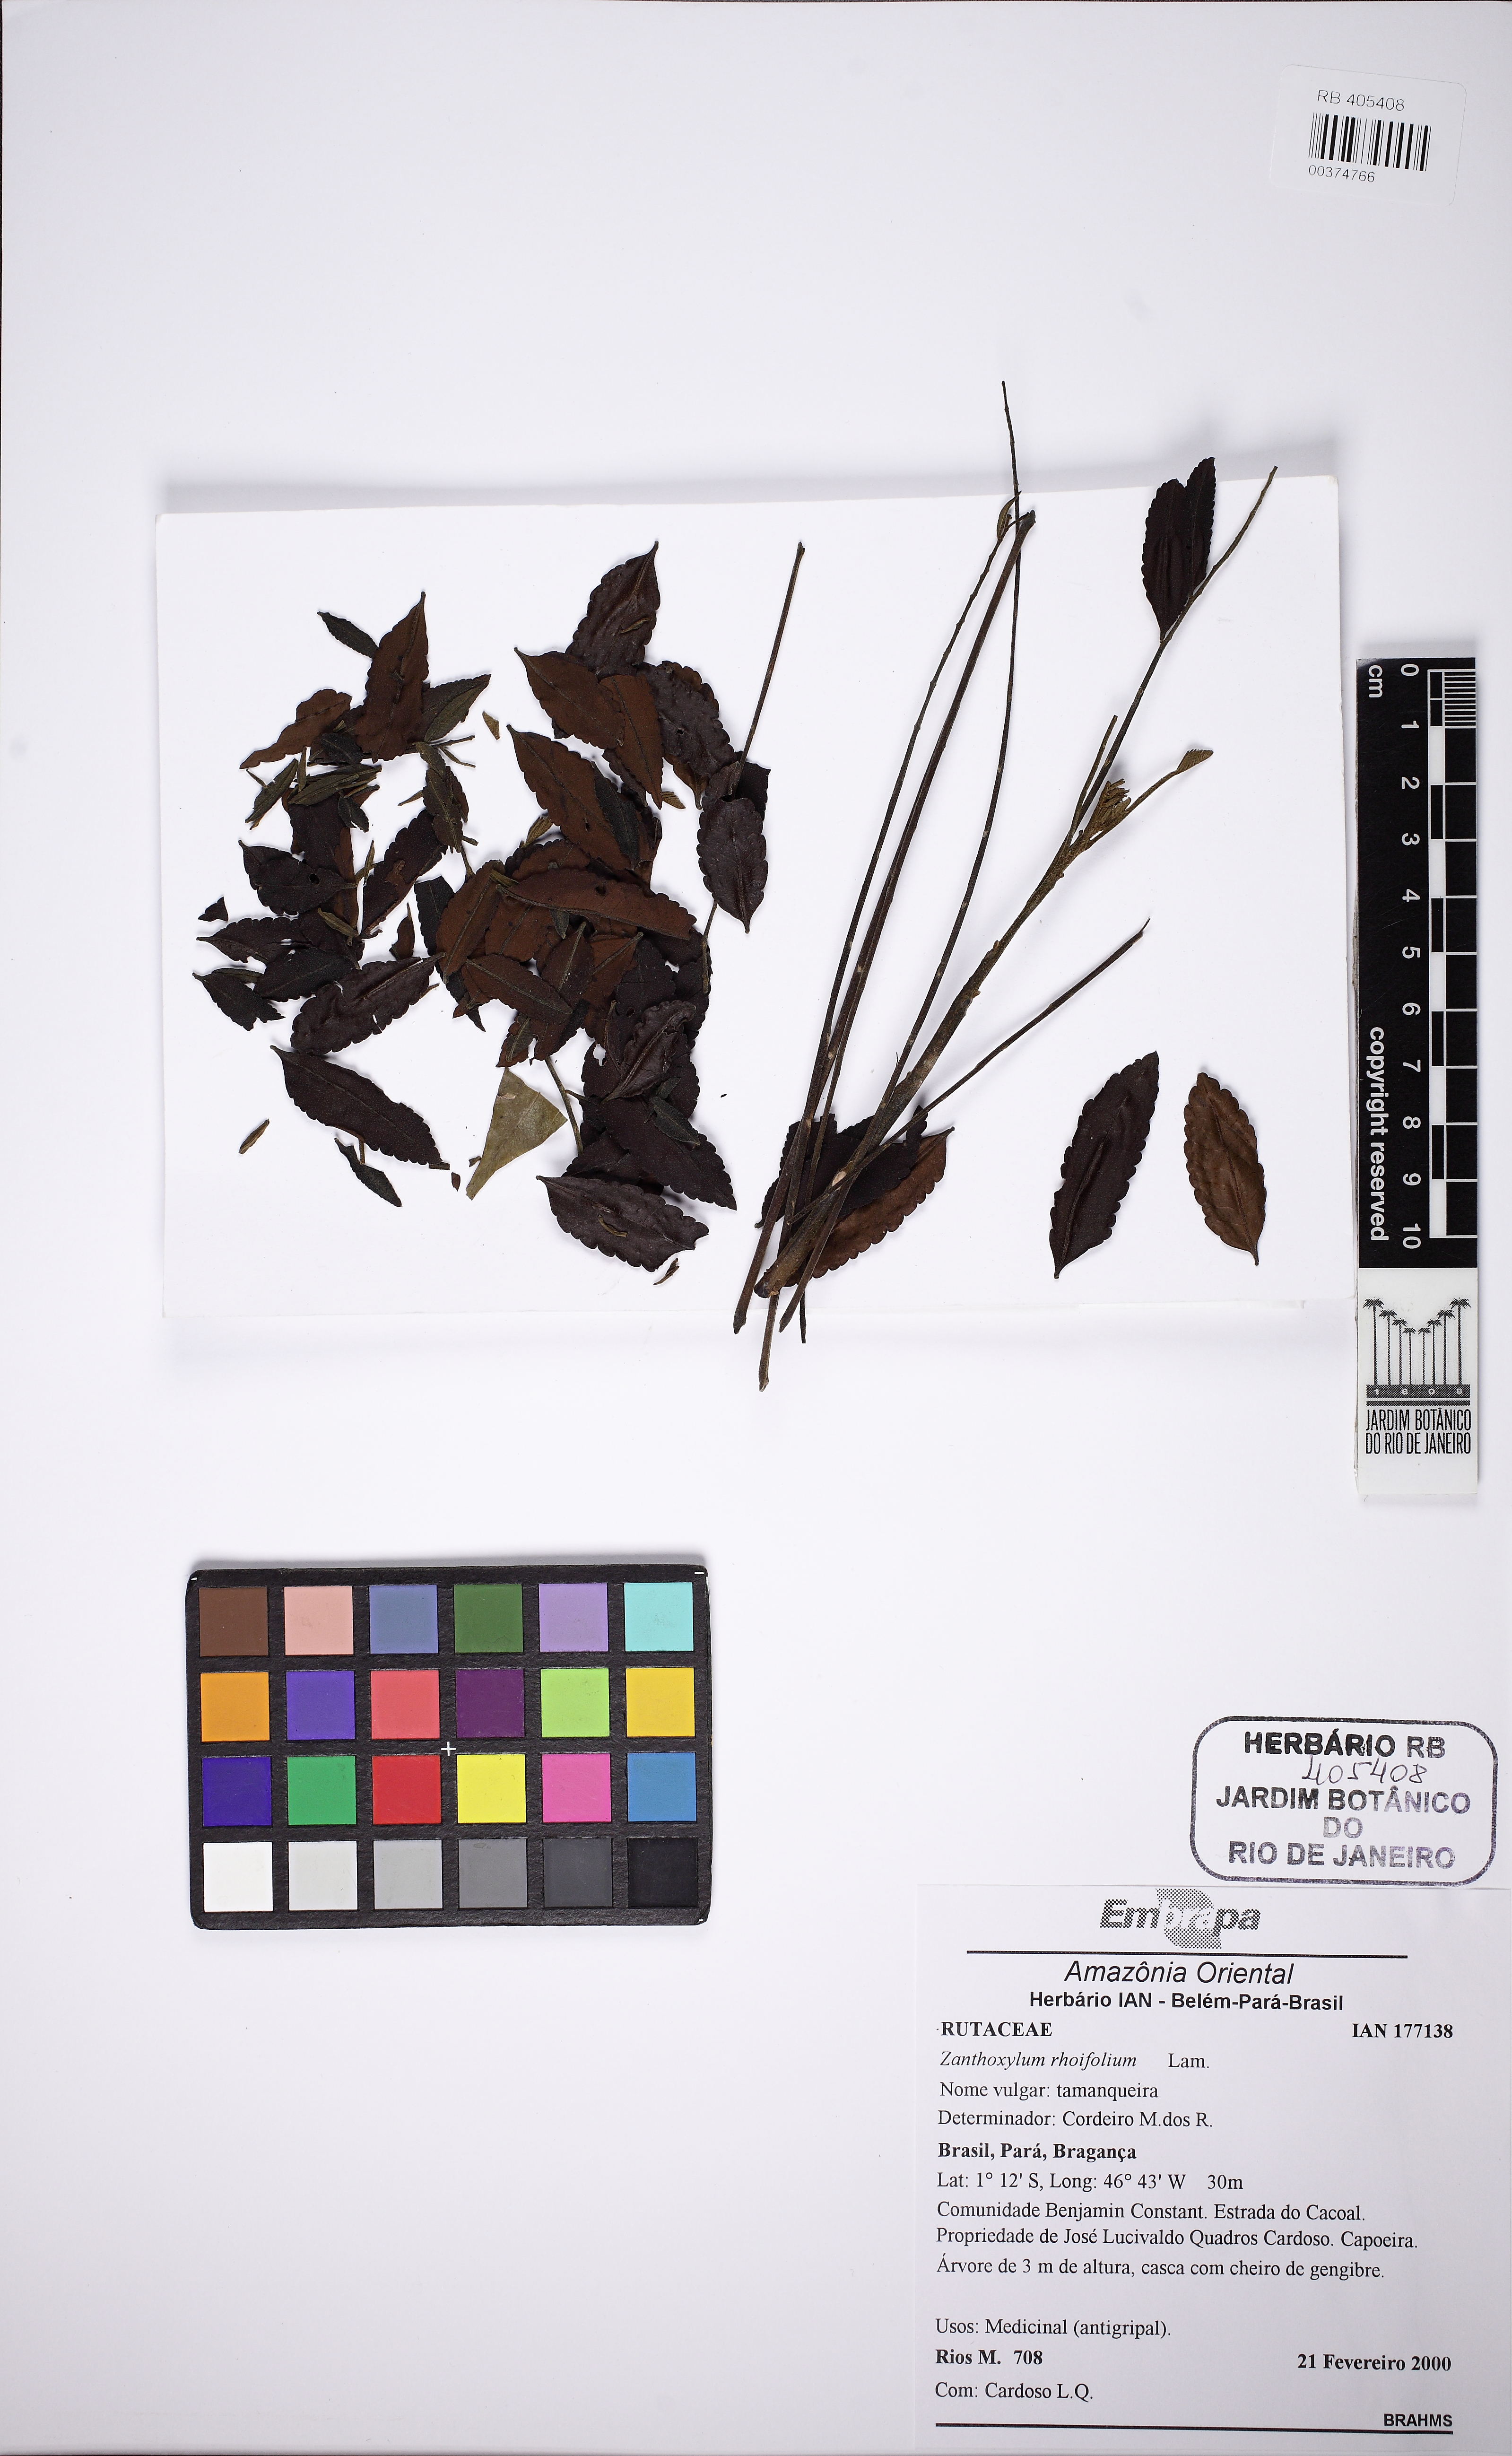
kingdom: Plantae
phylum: Tracheophyta
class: Magnoliopsida
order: Sapindales
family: Rutaceae
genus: Zanthoxylum
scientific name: Zanthoxylum rhoifolium
